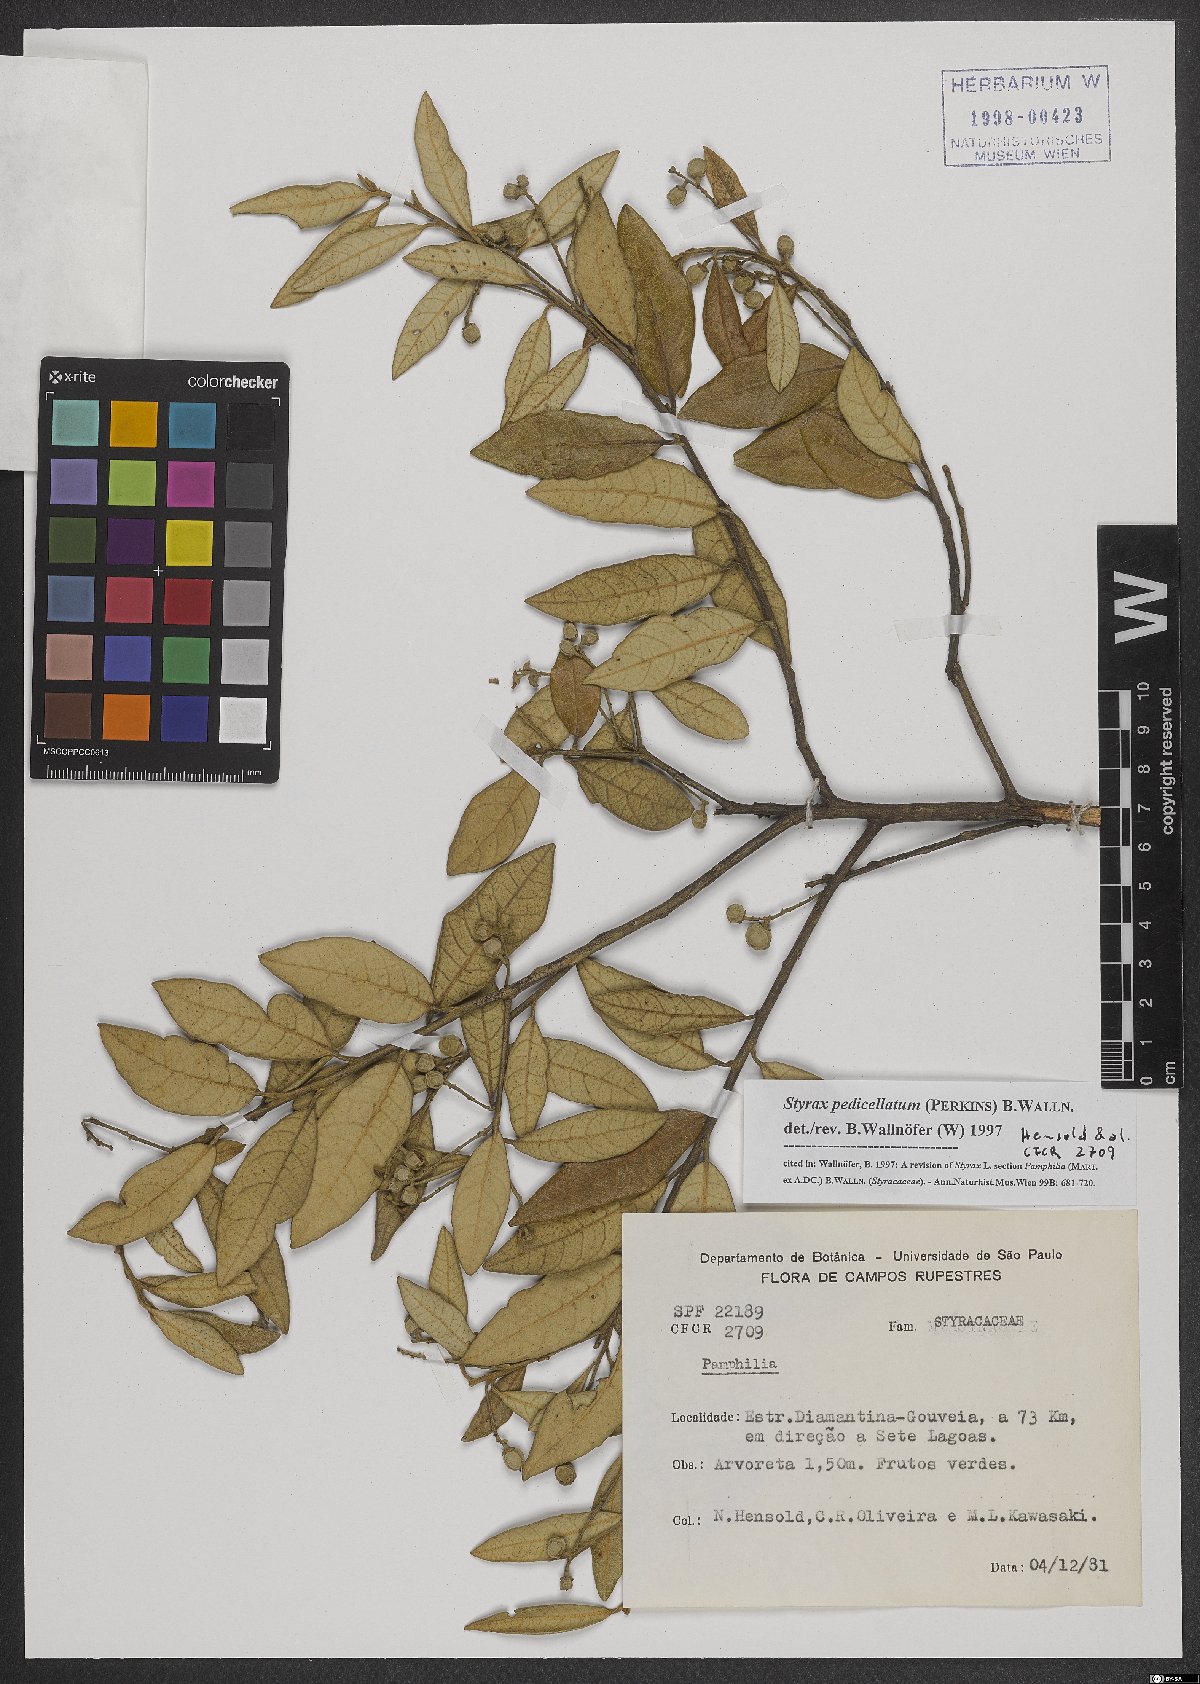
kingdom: Plantae
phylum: Tracheophyta
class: Magnoliopsida
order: Ericales
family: Styracaceae
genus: Styrax
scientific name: Styrax pedicellatus
